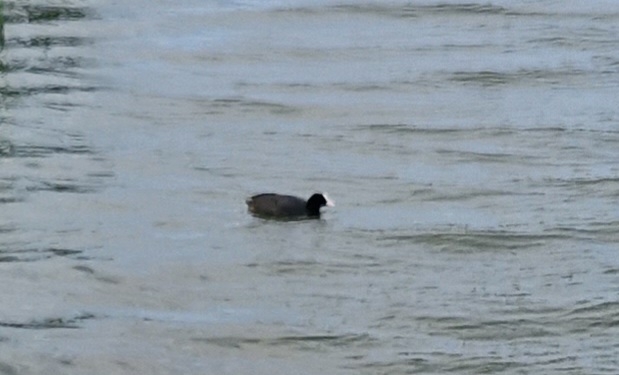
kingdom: Animalia
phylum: Chordata
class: Aves
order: Gruiformes
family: Rallidae
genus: Fulica
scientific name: Fulica atra
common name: Blishøne
